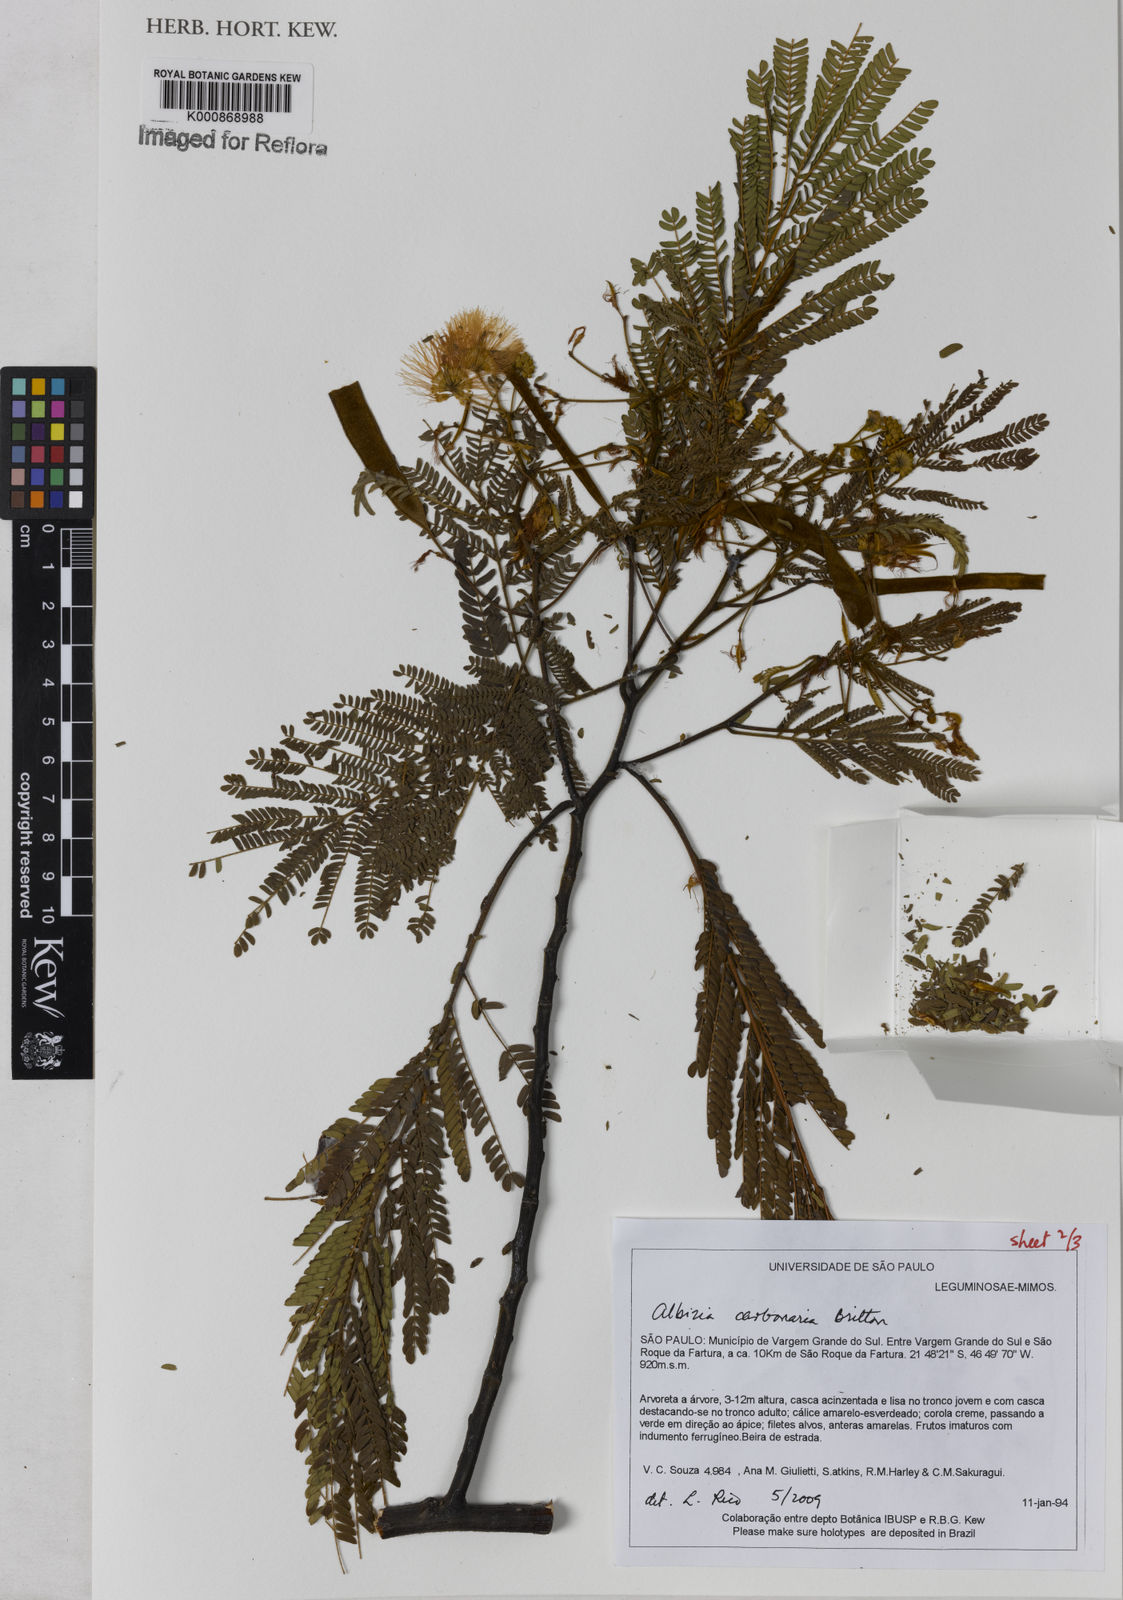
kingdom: Plantae
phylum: Tracheophyta
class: Magnoliopsida
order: Fabales
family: Fabaceae
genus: Albizia
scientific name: Albizia carbonaria
